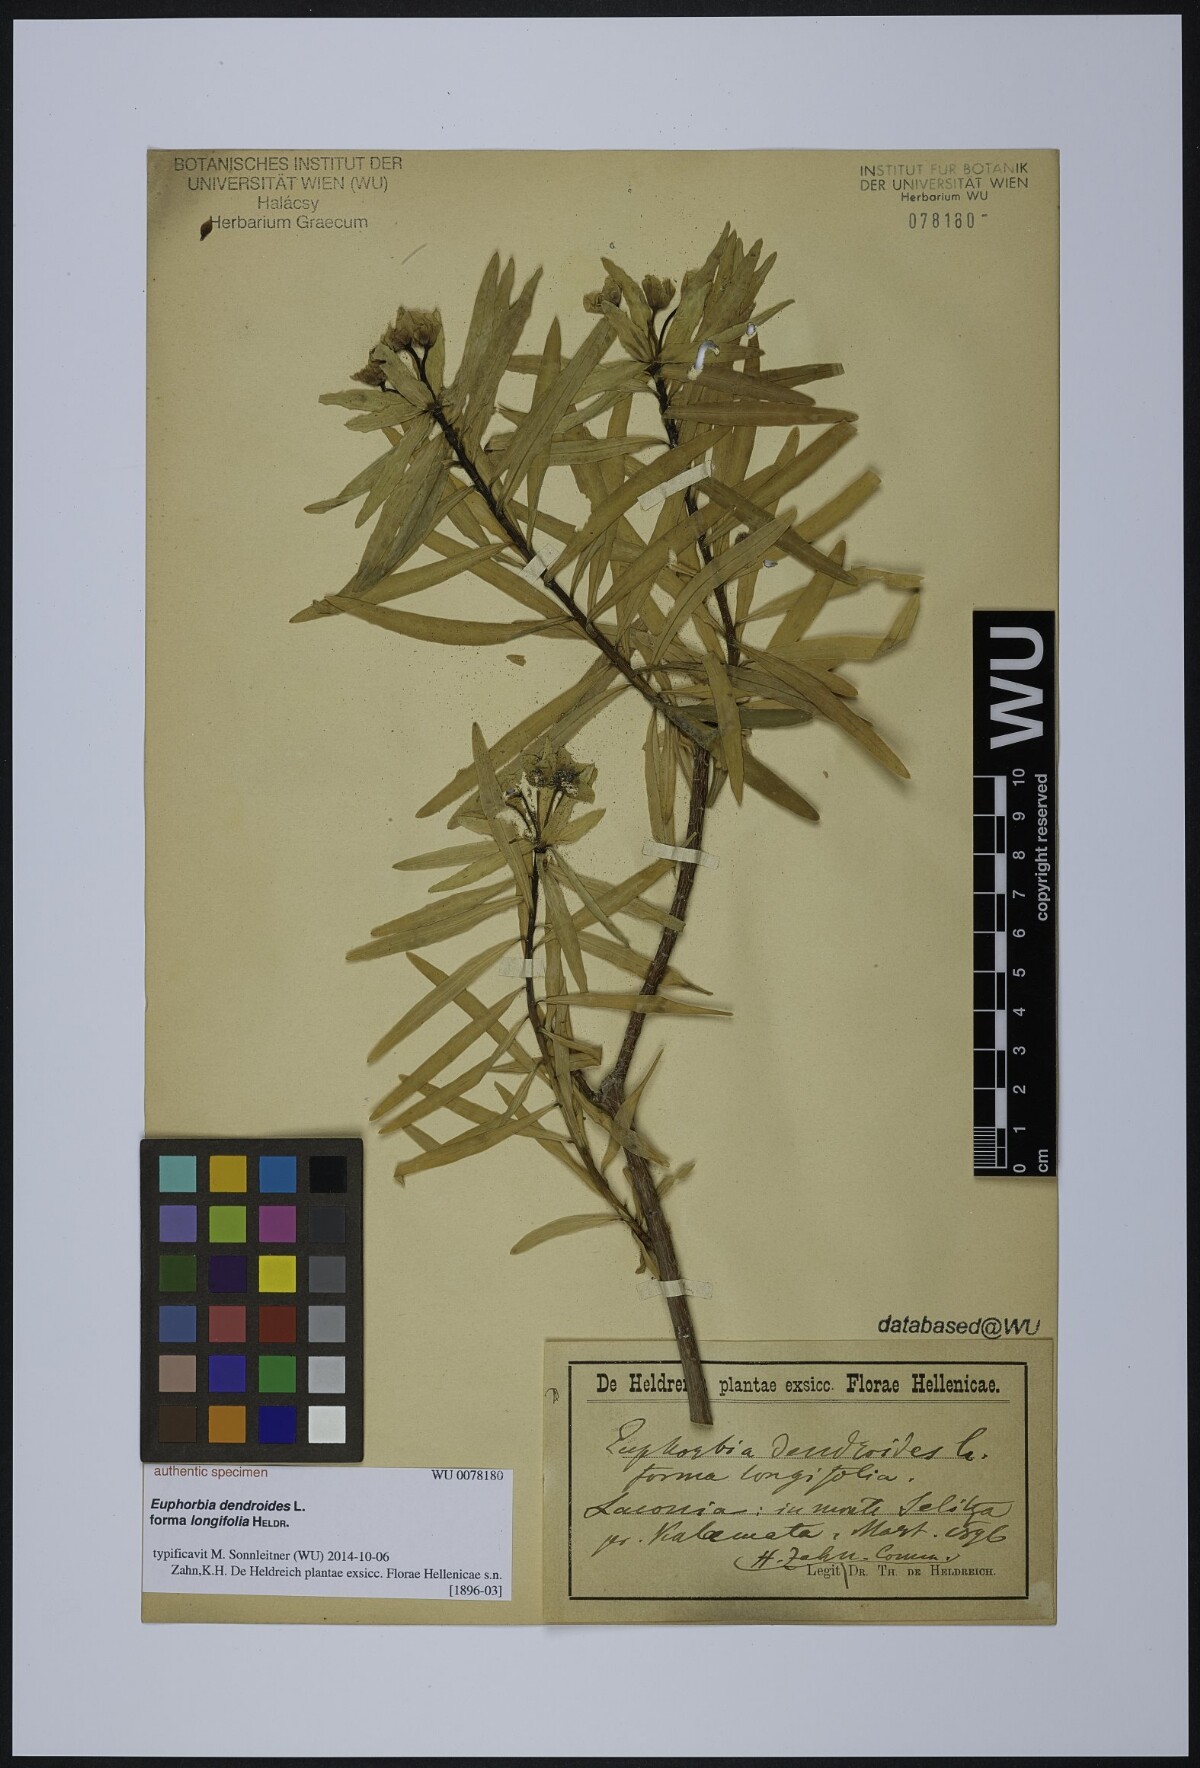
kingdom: Plantae
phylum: Tracheophyta
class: Magnoliopsida
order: Malpighiales
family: Euphorbiaceae
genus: Euphorbia
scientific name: Euphorbia dendroides
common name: Tree spurge
